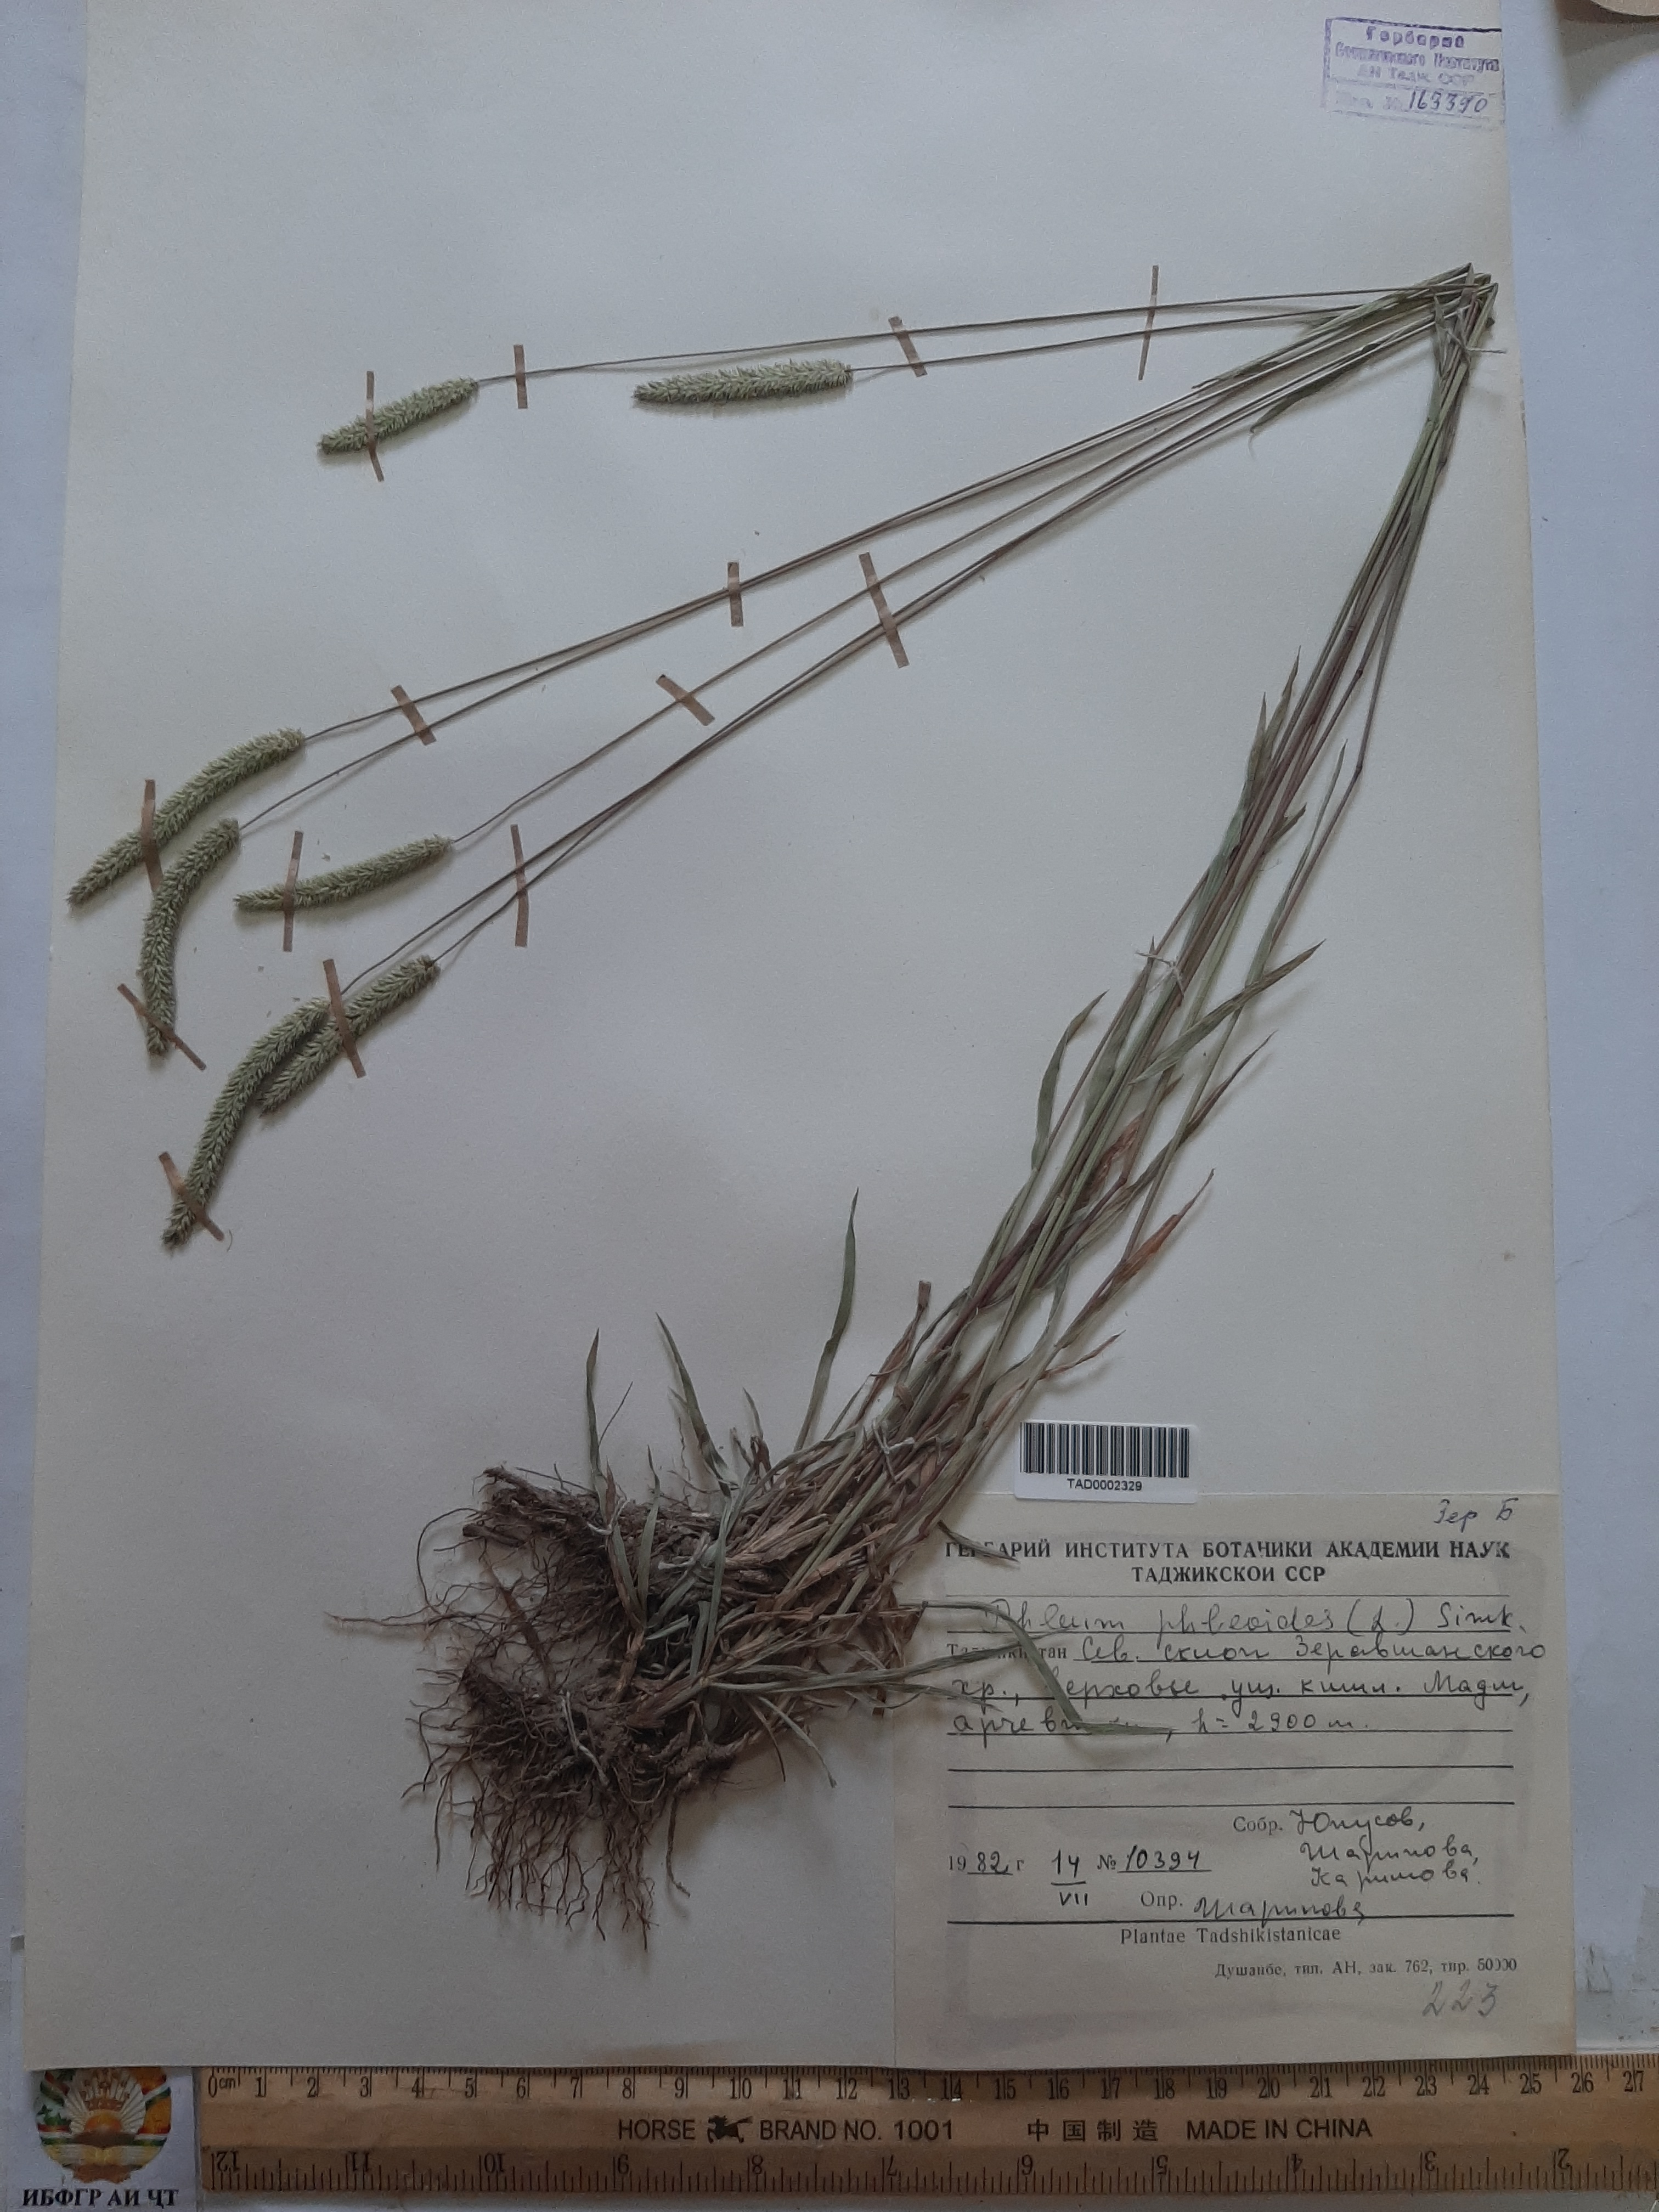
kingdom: Plantae
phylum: Tracheophyta
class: Liliopsida
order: Poales
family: Poaceae
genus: Phleum
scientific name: Phleum phleoides
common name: Purple-stem cat's-tail
